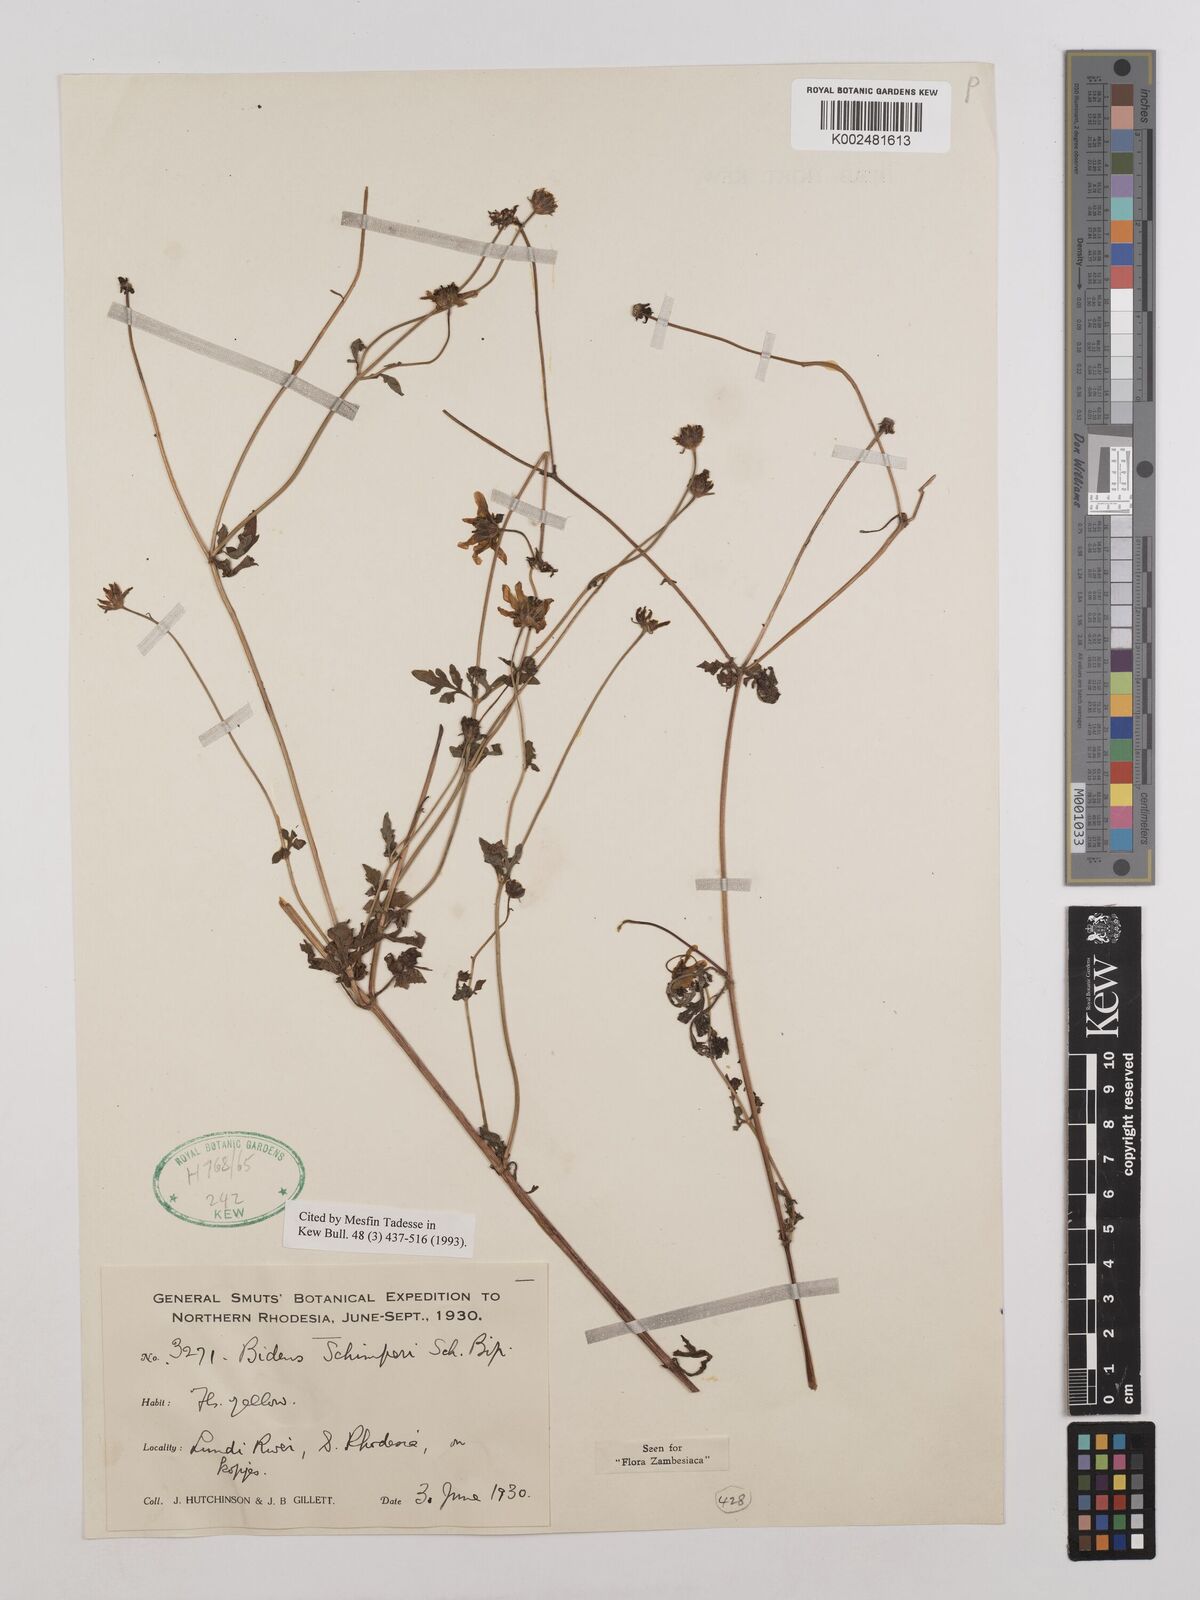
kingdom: Plantae
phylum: Tracheophyta
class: Magnoliopsida
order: Asterales
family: Asteraceae
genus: Bidens
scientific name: Bidens schimperi
